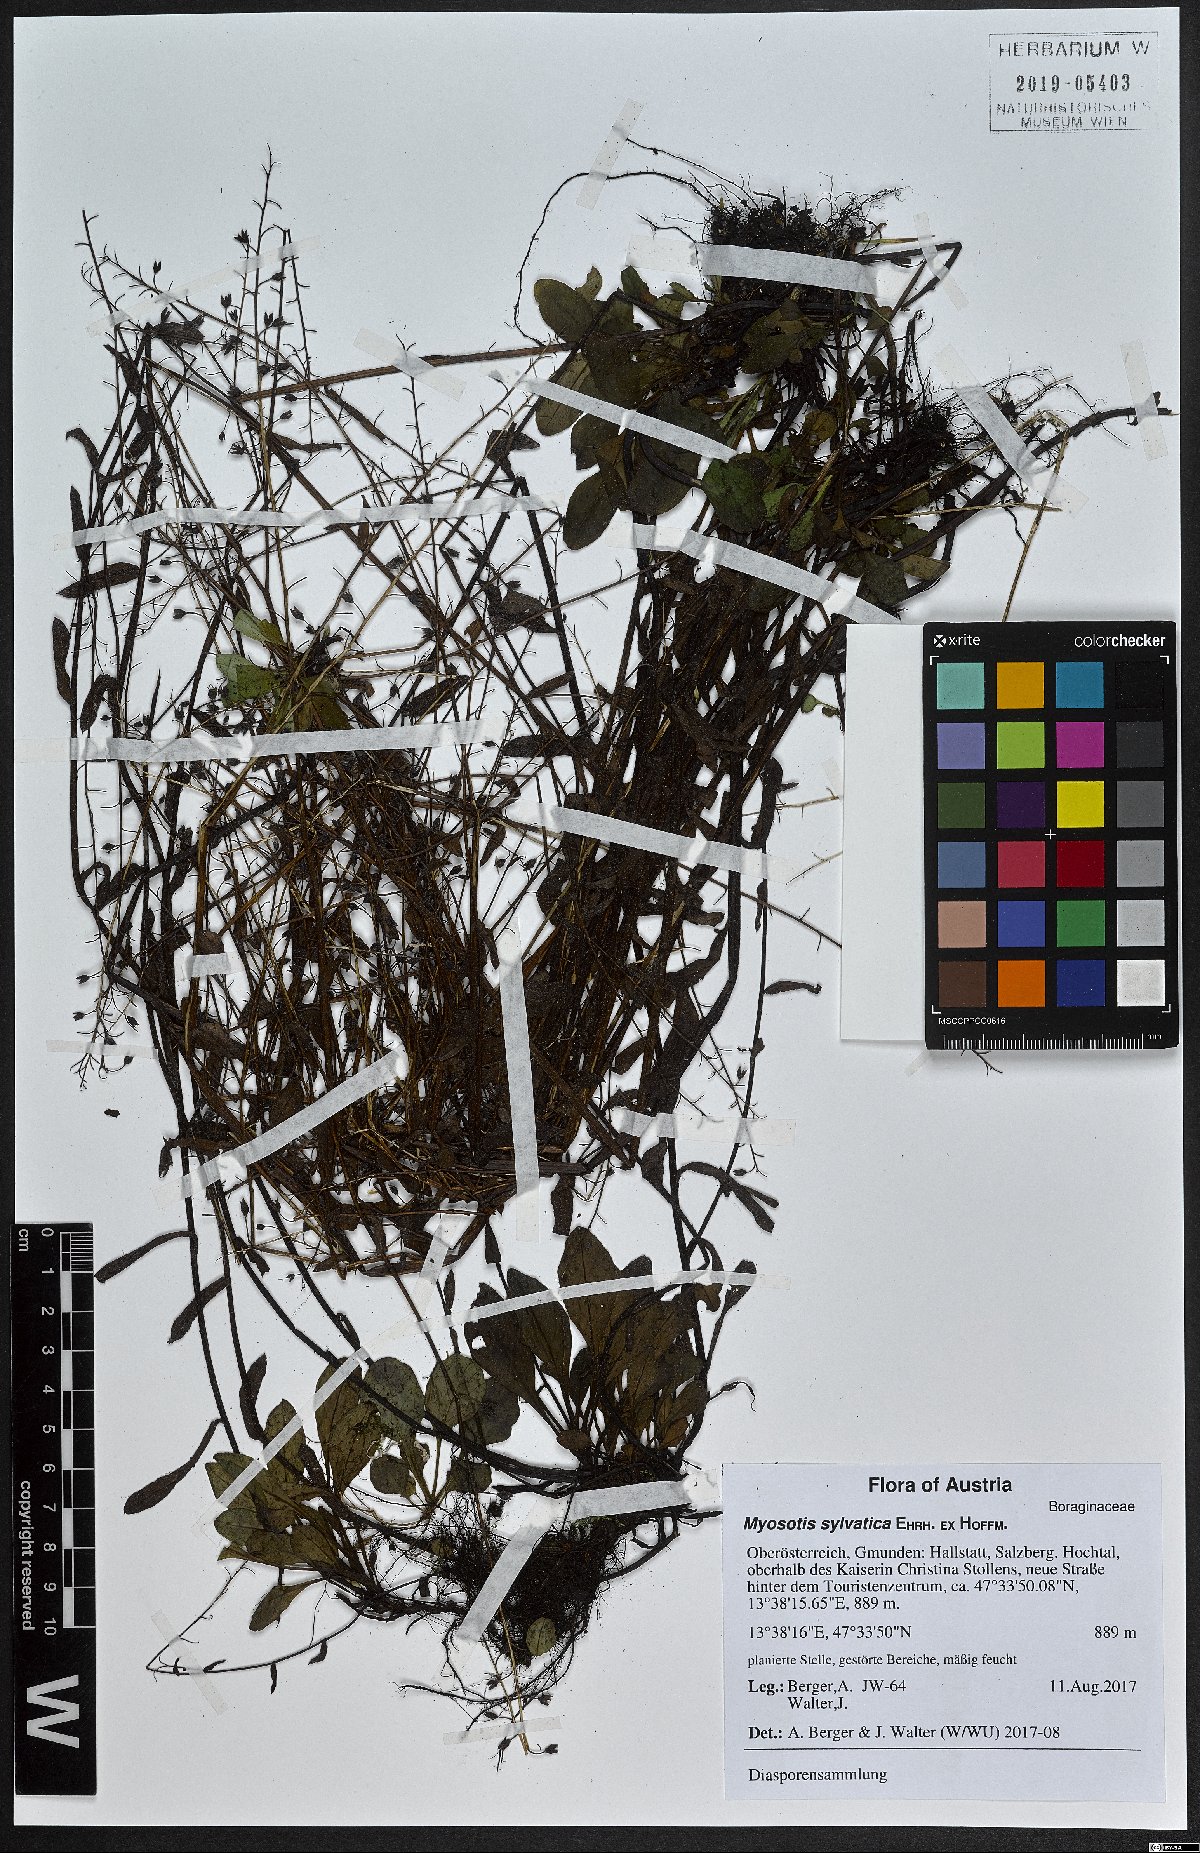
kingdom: Plantae
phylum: Tracheophyta
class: Magnoliopsida
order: Boraginales
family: Boraginaceae
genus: Myosotis
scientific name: Myosotis sylvatica
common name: Wood forget-me-not
